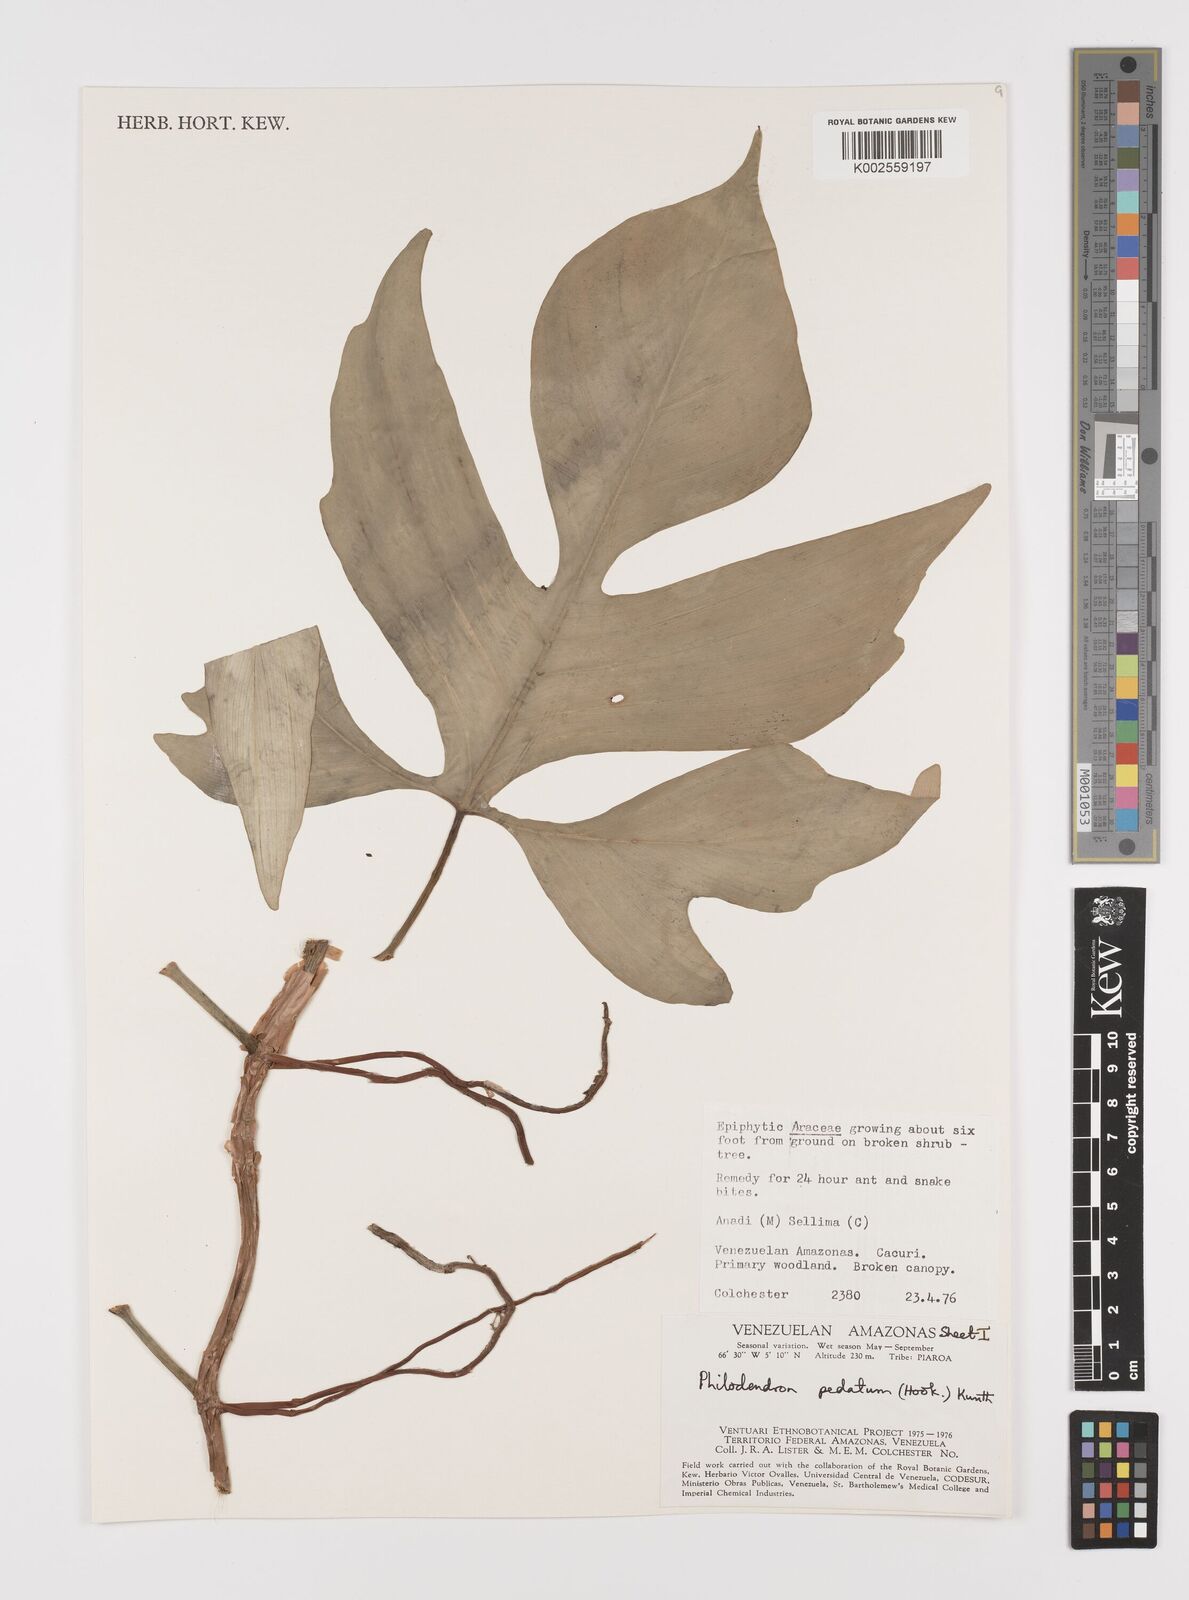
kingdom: Plantae
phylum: Tracheophyta
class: Liliopsida
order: Alismatales
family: Araceae
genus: Philodendron
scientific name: Philodendron pedatum
